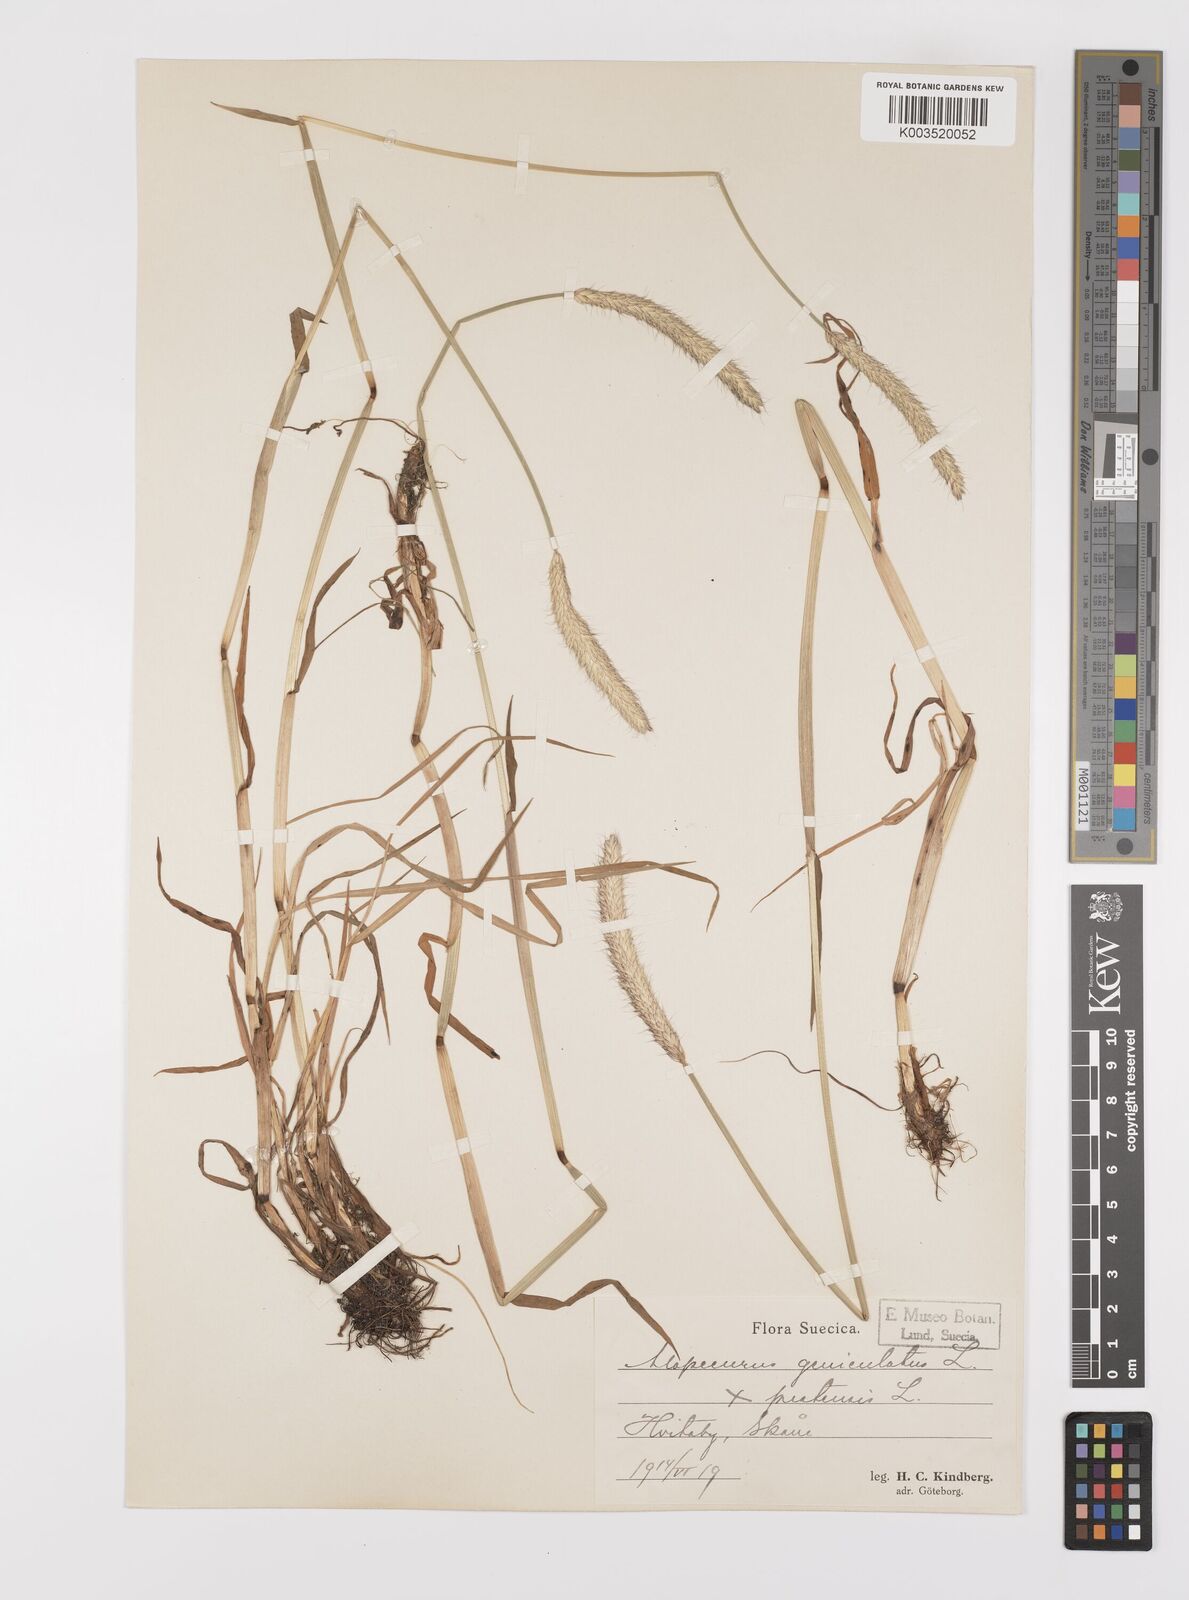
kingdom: Plantae
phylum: Tracheophyta
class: Liliopsida
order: Poales
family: Poaceae
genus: Alopecurus
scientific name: Alopecurus brachystylus
